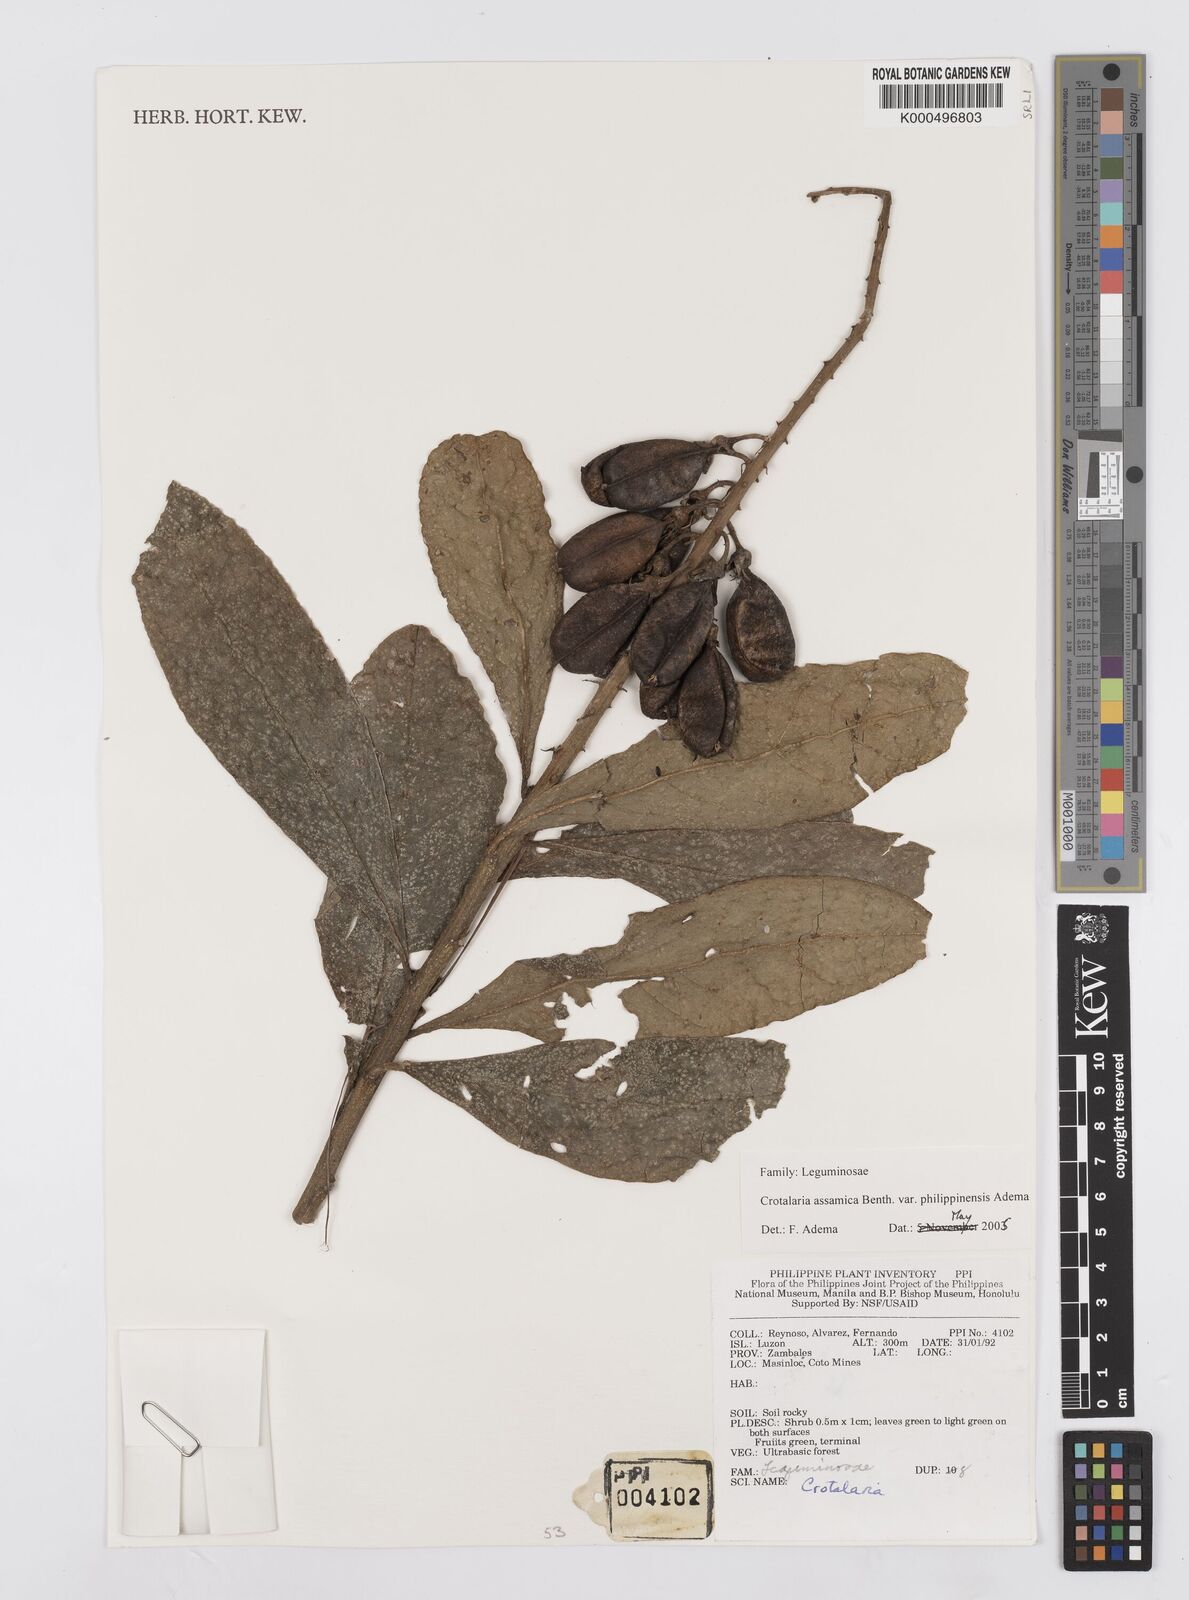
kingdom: Plantae
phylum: Tracheophyta
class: Magnoliopsida
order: Fabales
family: Fabaceae
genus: Crotalaria
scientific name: Crotalaria sericea
